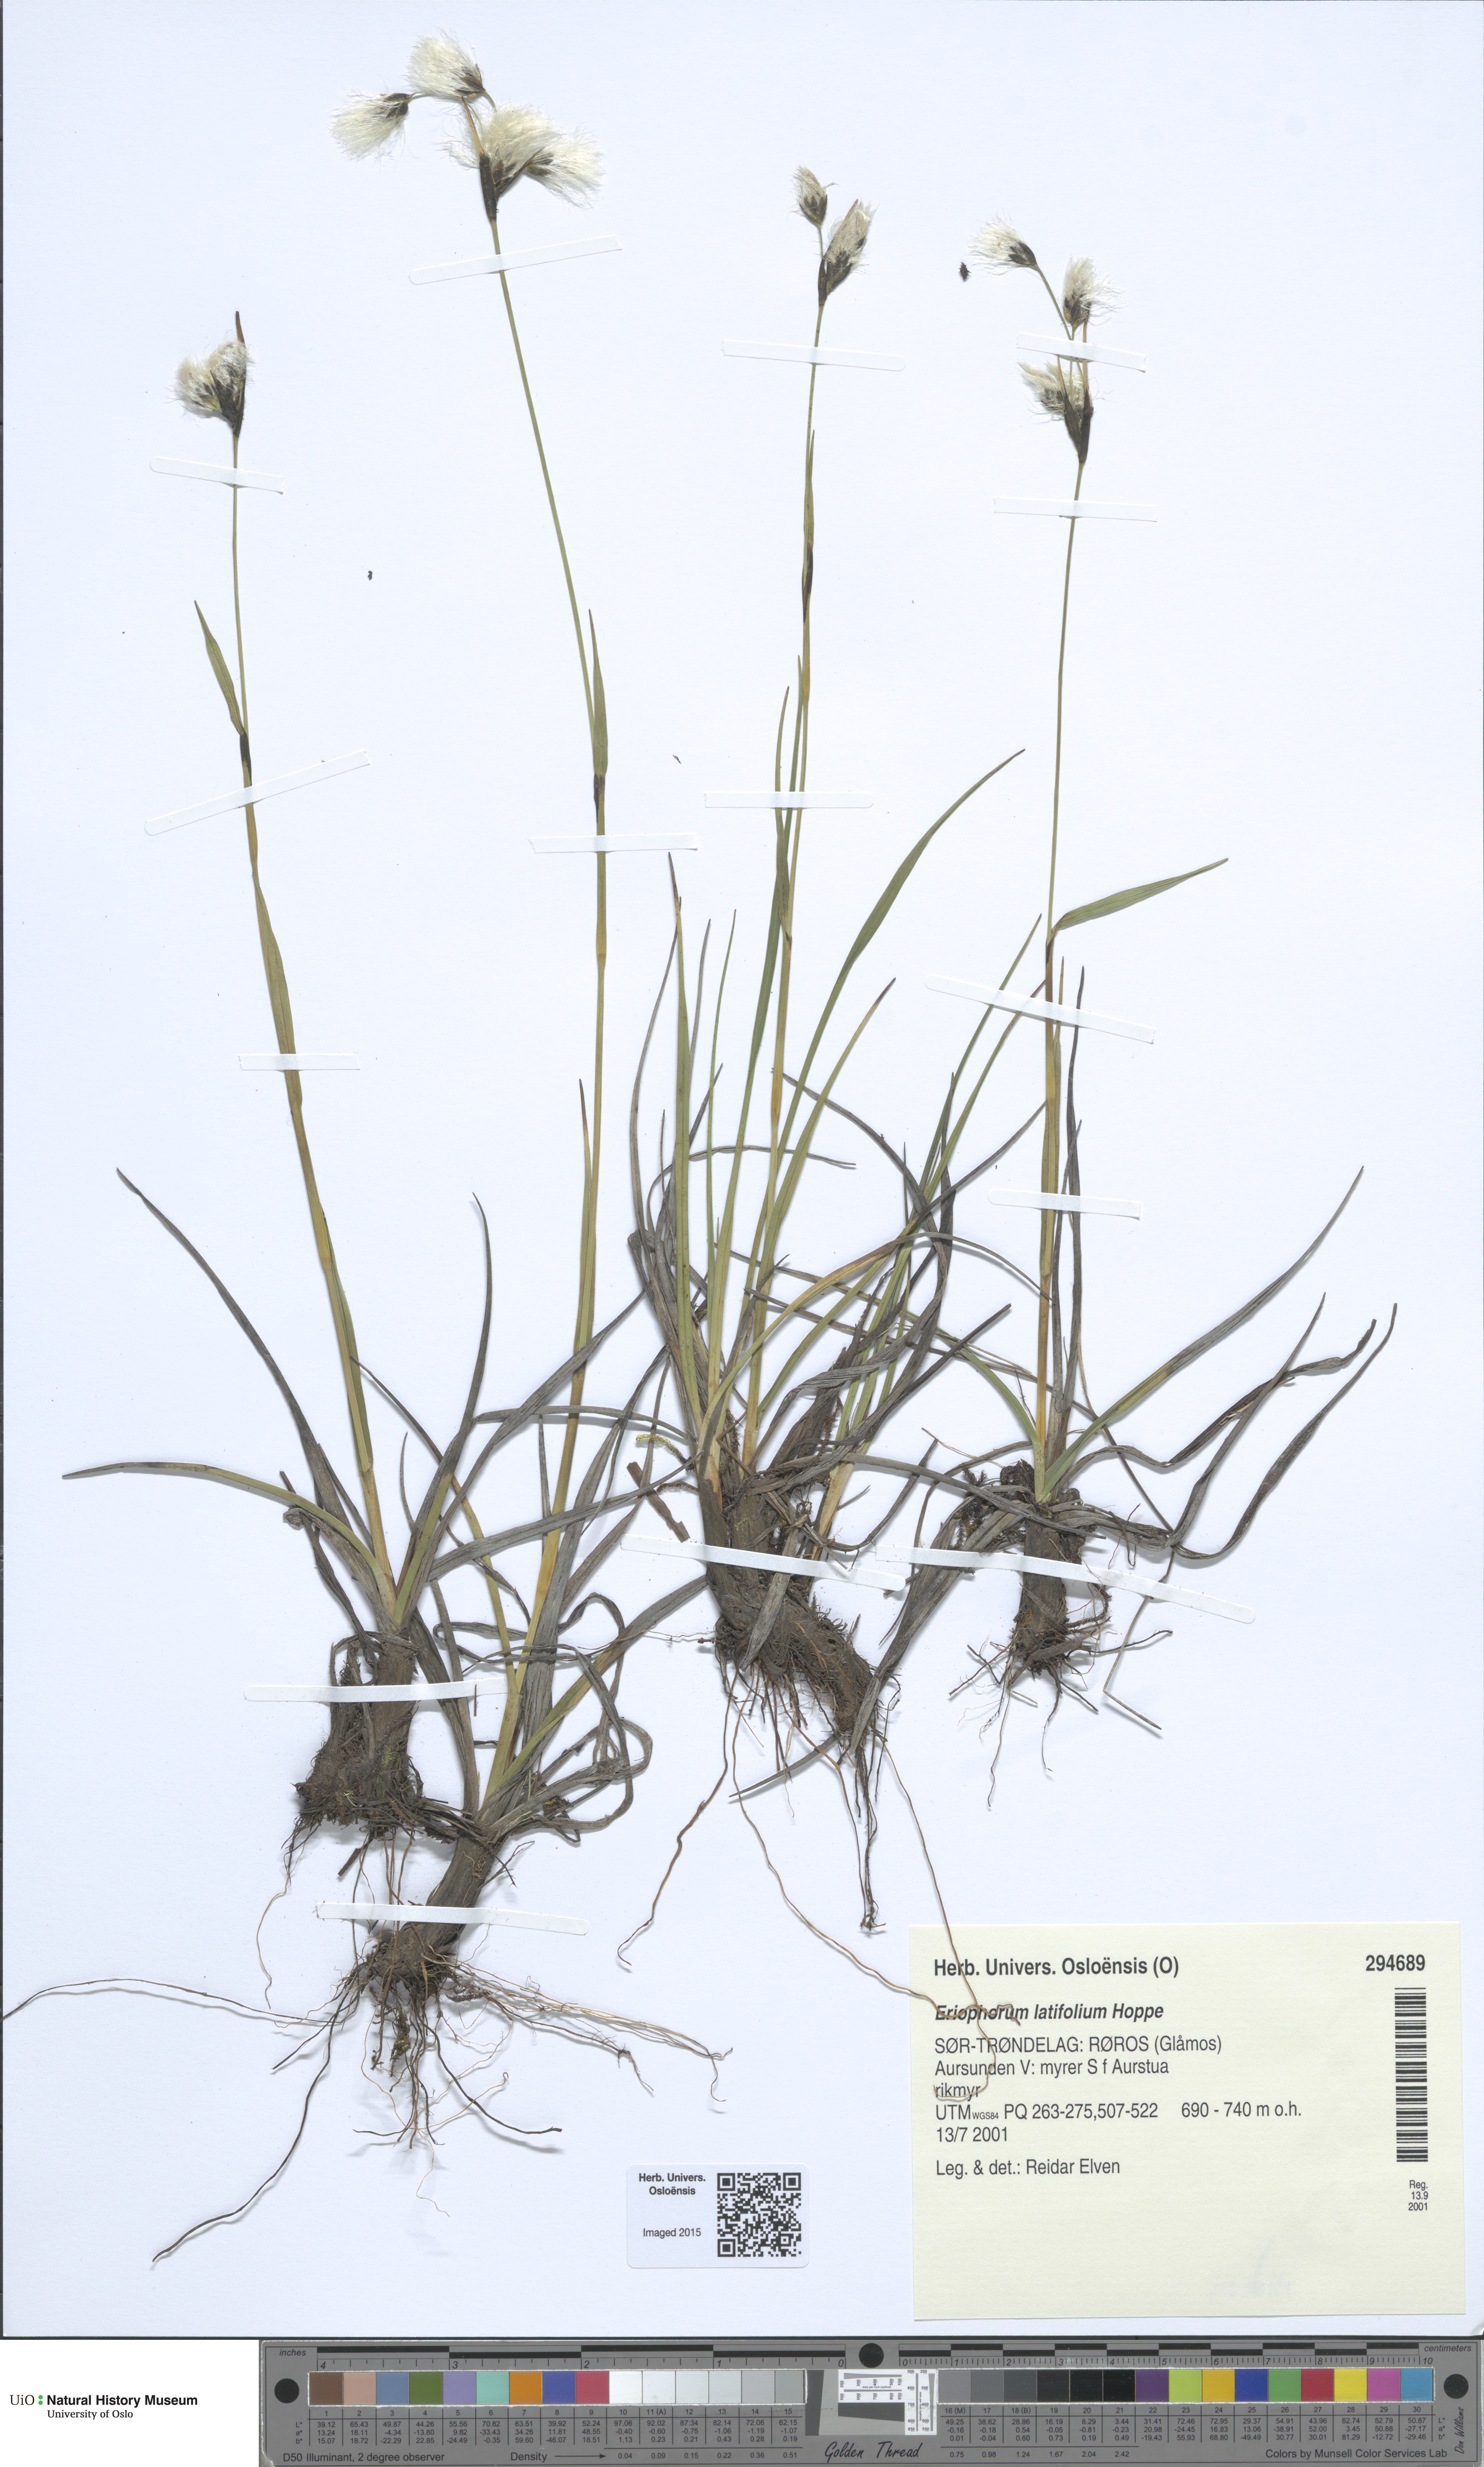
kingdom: Plantae
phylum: Tracheophyta
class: Liliopsida
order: Poales
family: Cyperaceae
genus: Eriophorum
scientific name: Eriophorum latifolium
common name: Broad-leaved cottongrass
